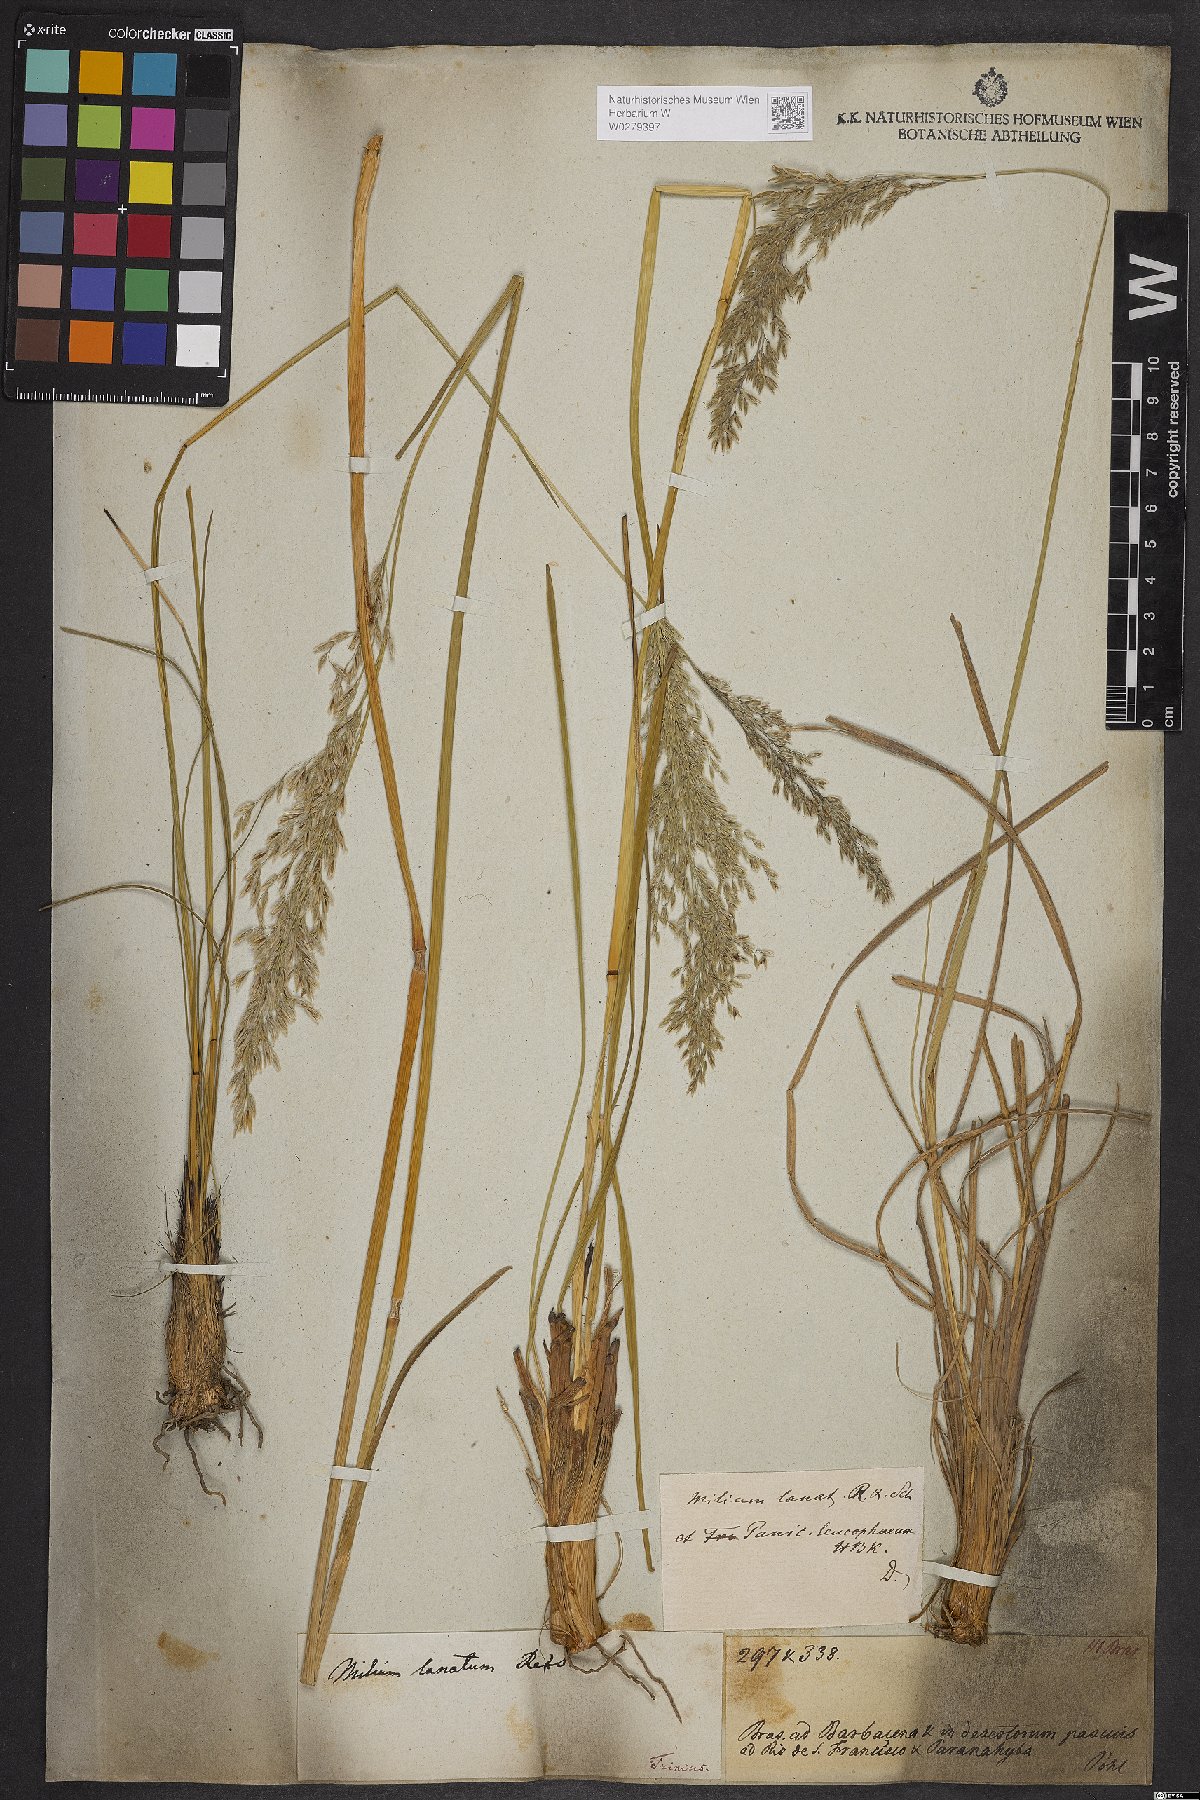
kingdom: Plantae
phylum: Tracheophyta
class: Liliopsida
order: Poales
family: Poaceae
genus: Anthaenantia
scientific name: Anthaenantia lanata
